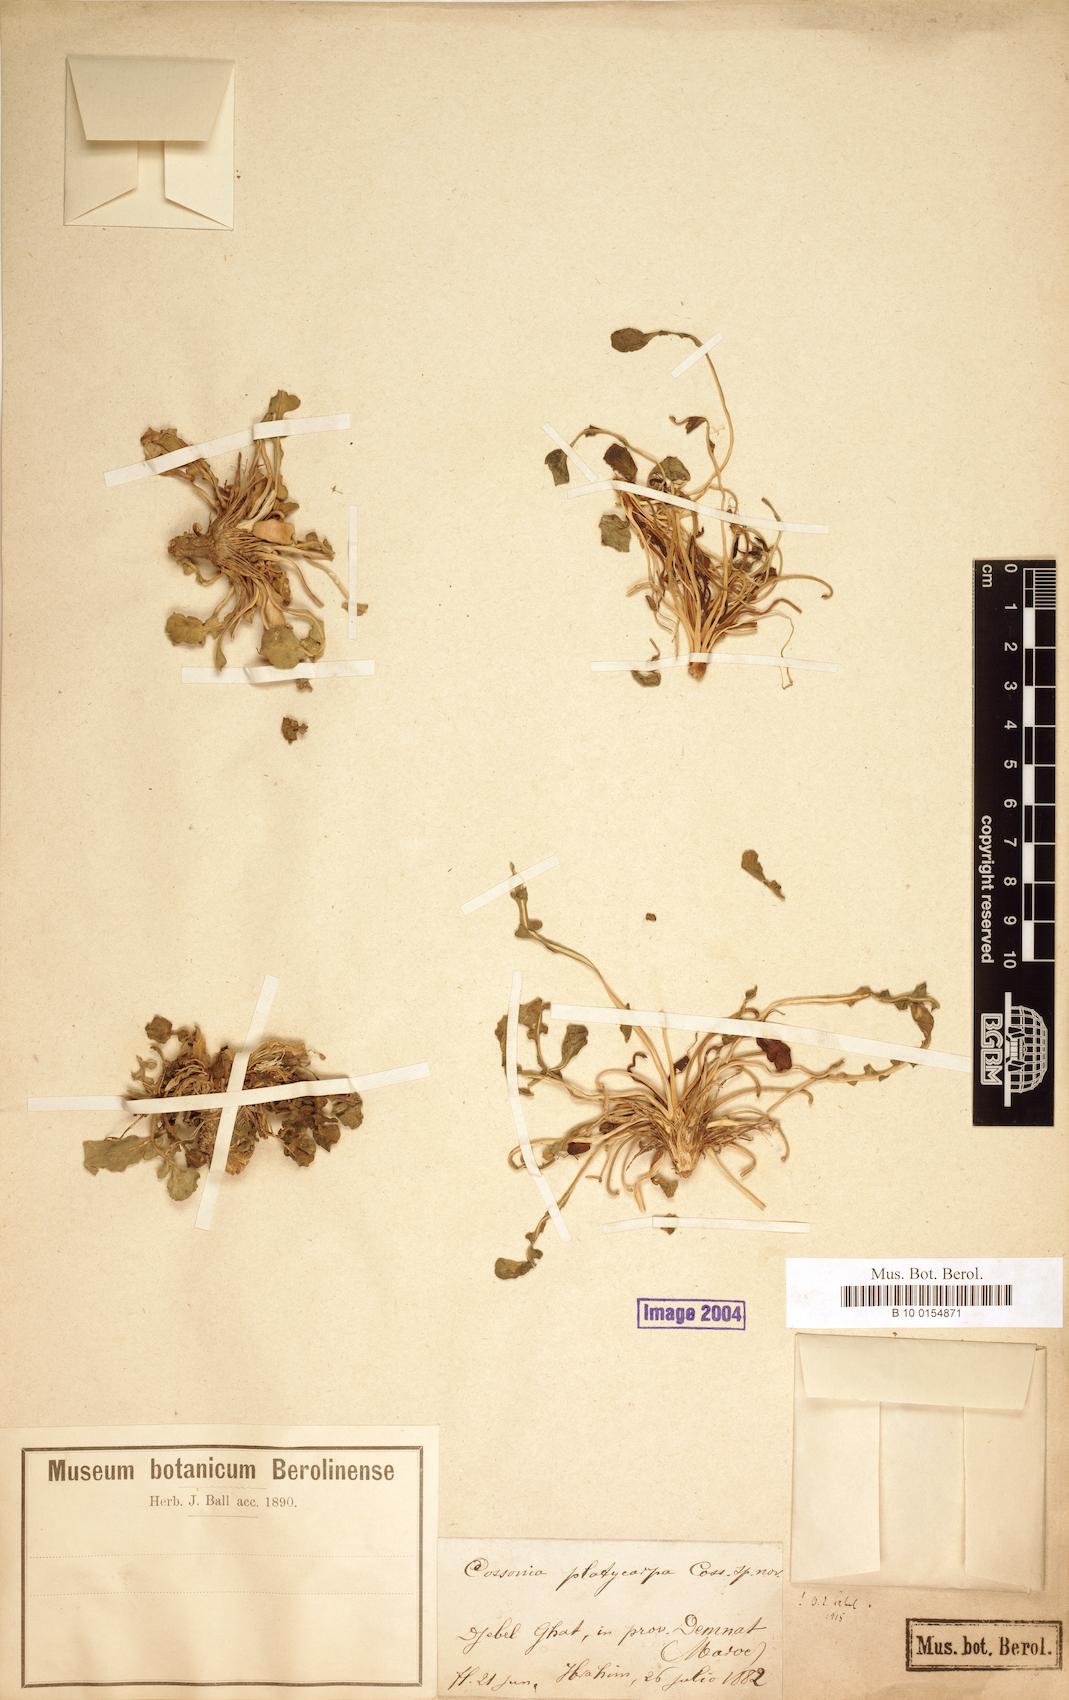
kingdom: Plantae
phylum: Tracheophyta
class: Magnoliopsida
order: Brassicales
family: Brassicaceae
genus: Raffenaldia
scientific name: Raffenaldia platycarpa
